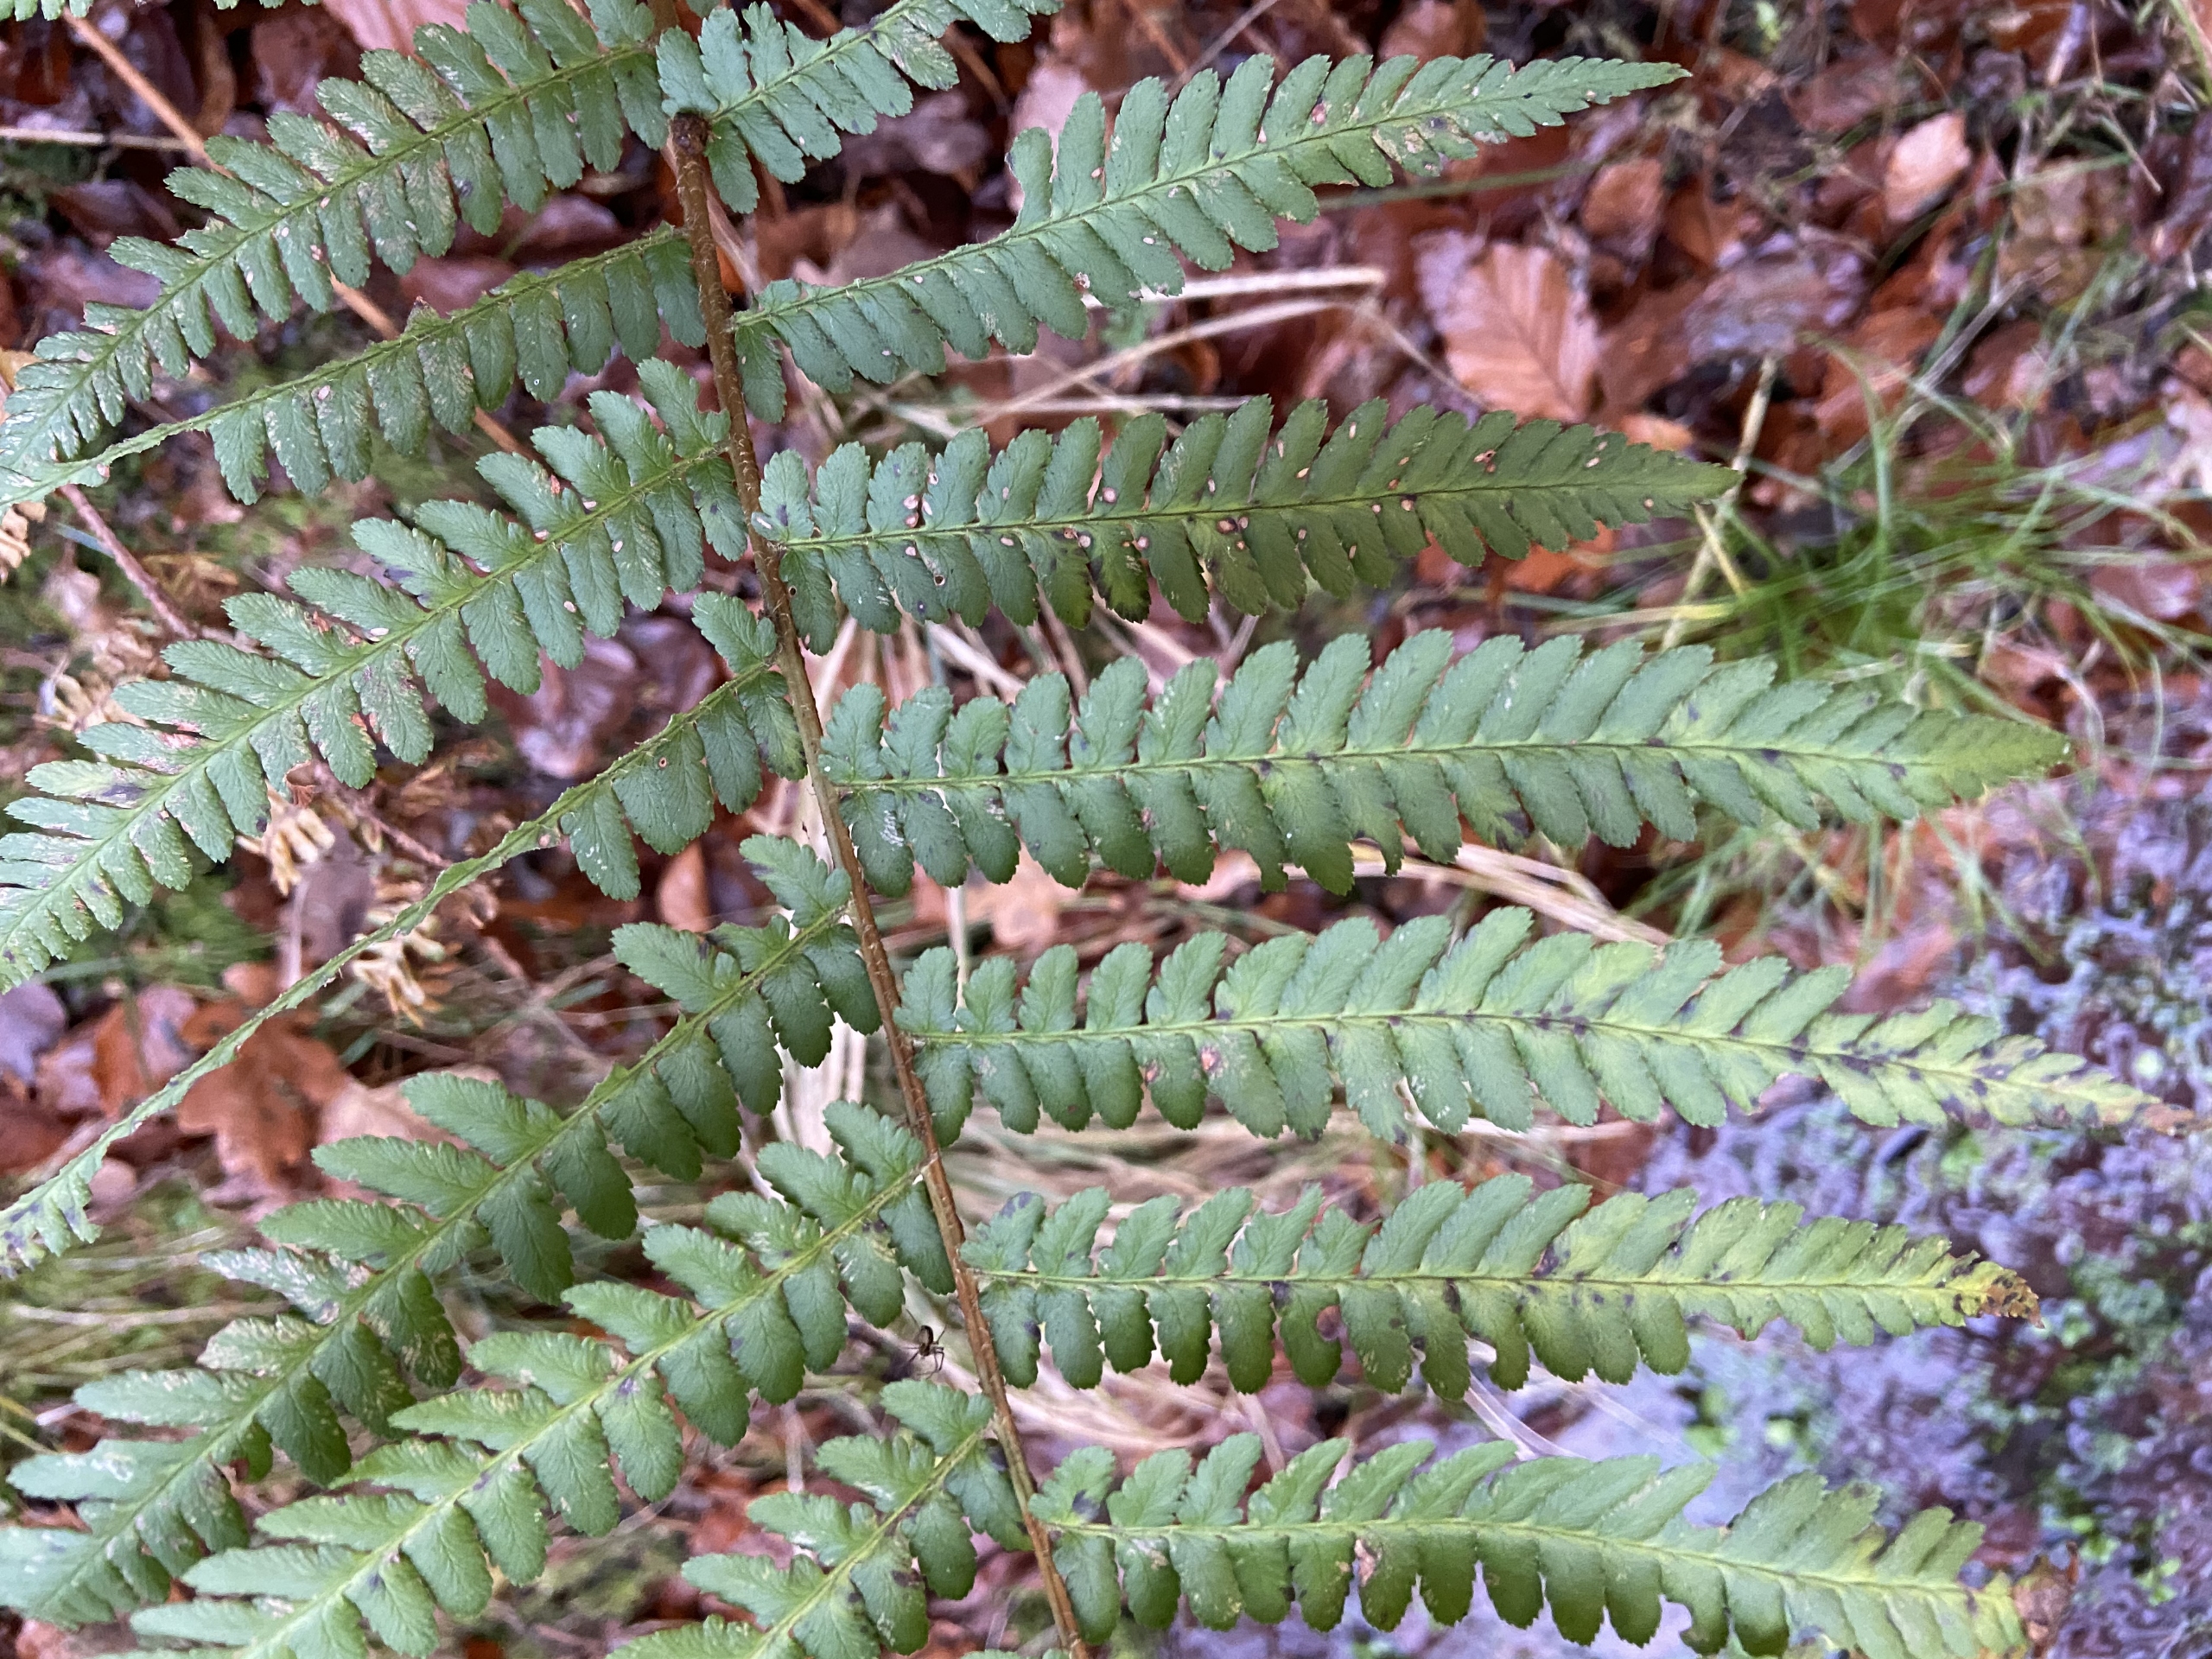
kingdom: Plantae
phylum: Tracheophyta
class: Polypodiopsida
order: Polypodiales
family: Dryopteridaceae
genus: Dryopteris
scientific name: Dryopteris filix-mas
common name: Almindelig mangeløv
